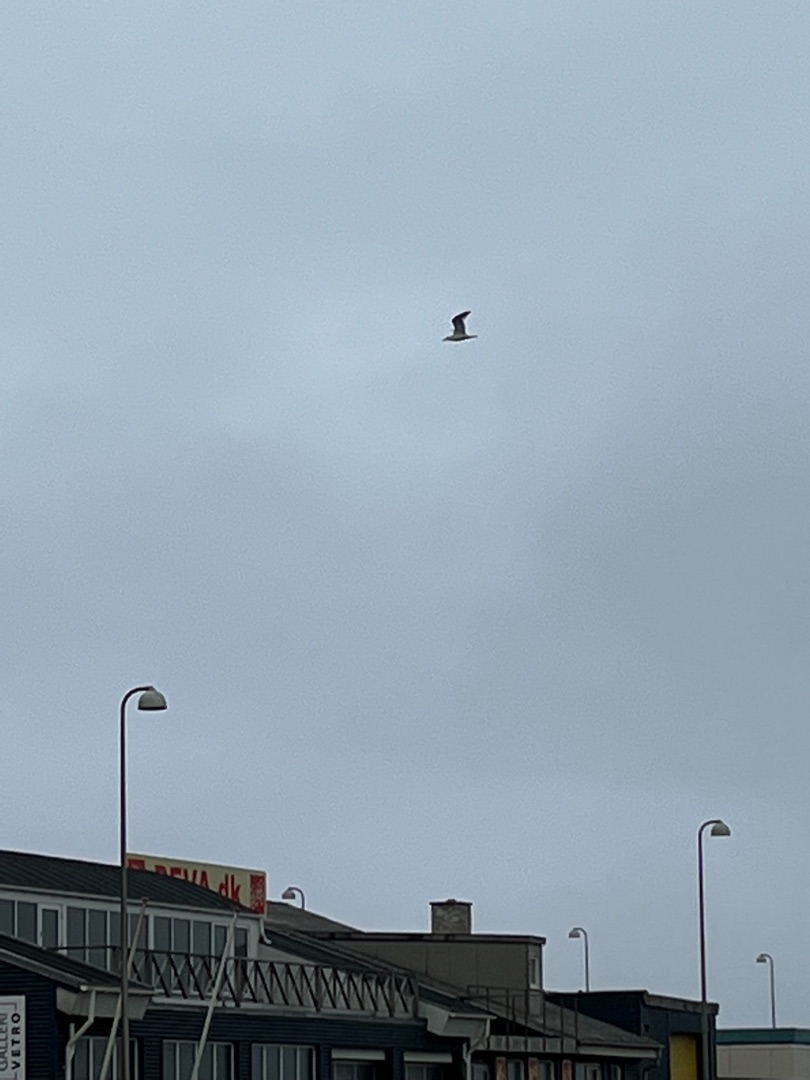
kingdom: Animalia
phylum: Chordata
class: Aves
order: Charadriiformes
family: Laridae
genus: Larus
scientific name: Larus argentatus
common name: Sølvmåge
